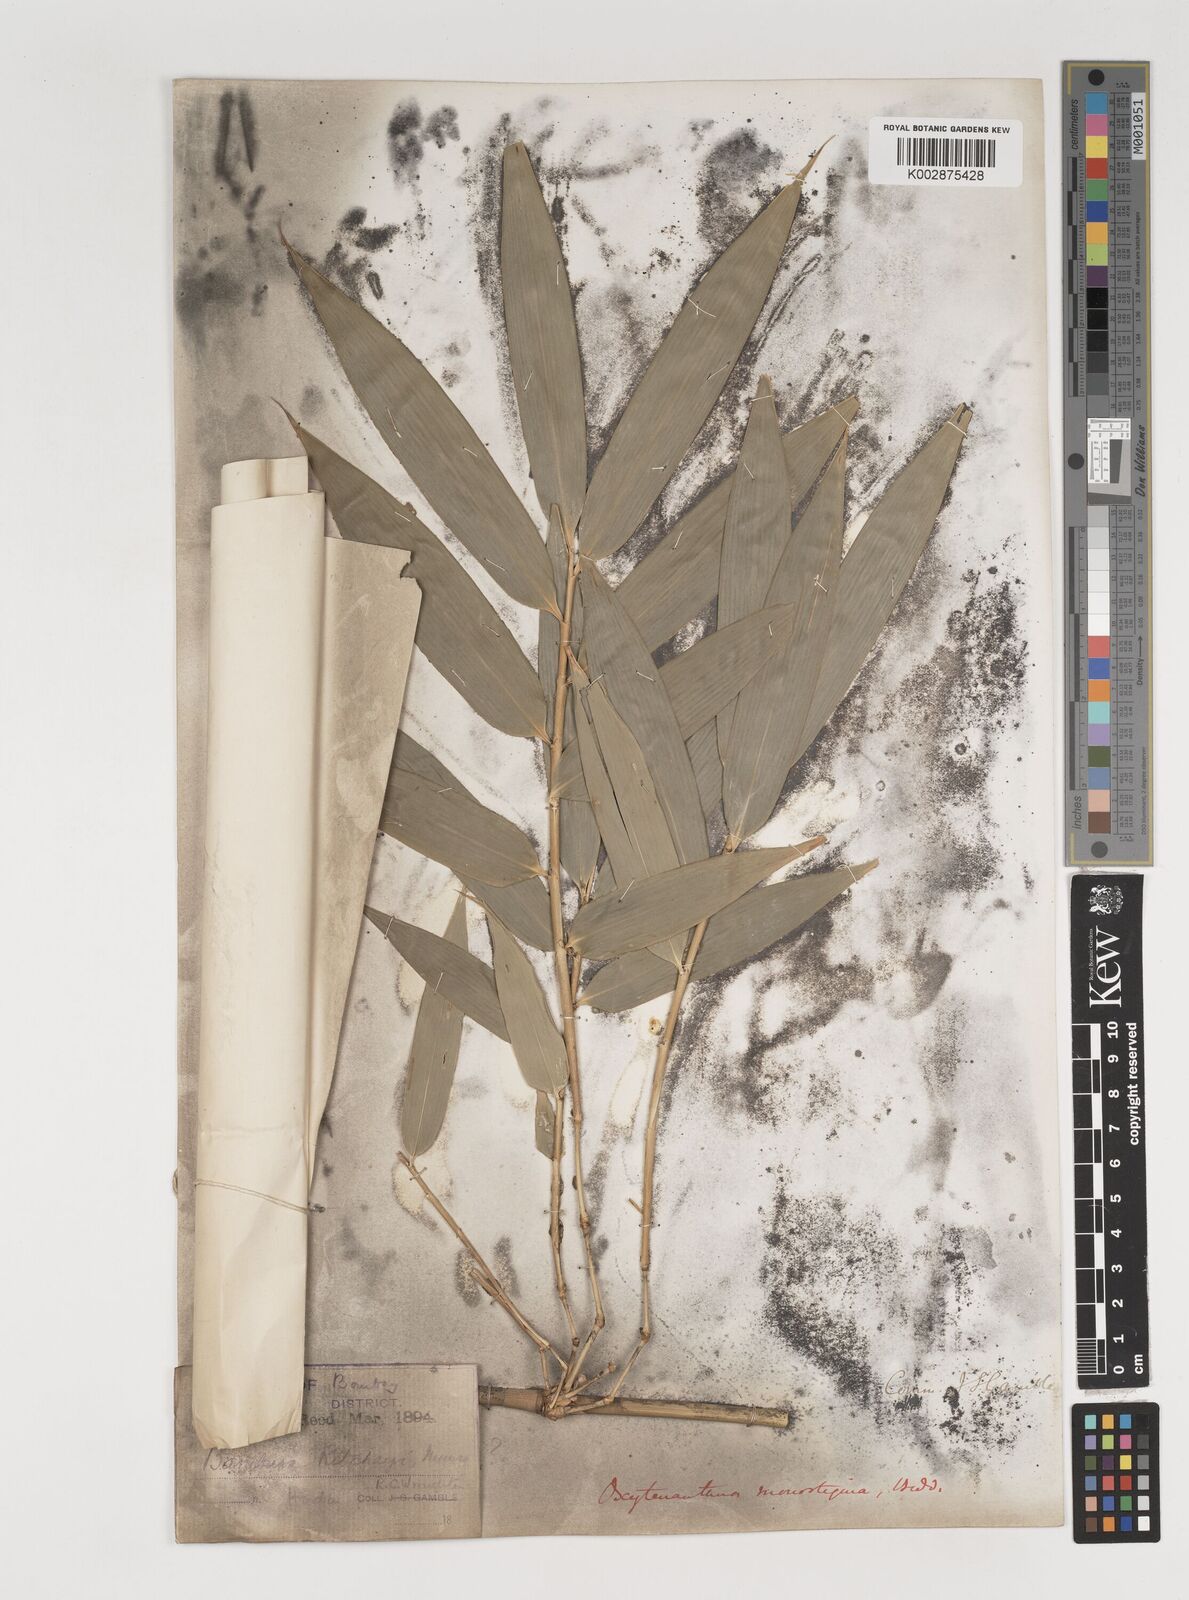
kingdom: Plantae
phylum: Tracheophyta
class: Liliopsida
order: Poales
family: Poaceae
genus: Dendrocalamus
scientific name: Dendrocalamus
